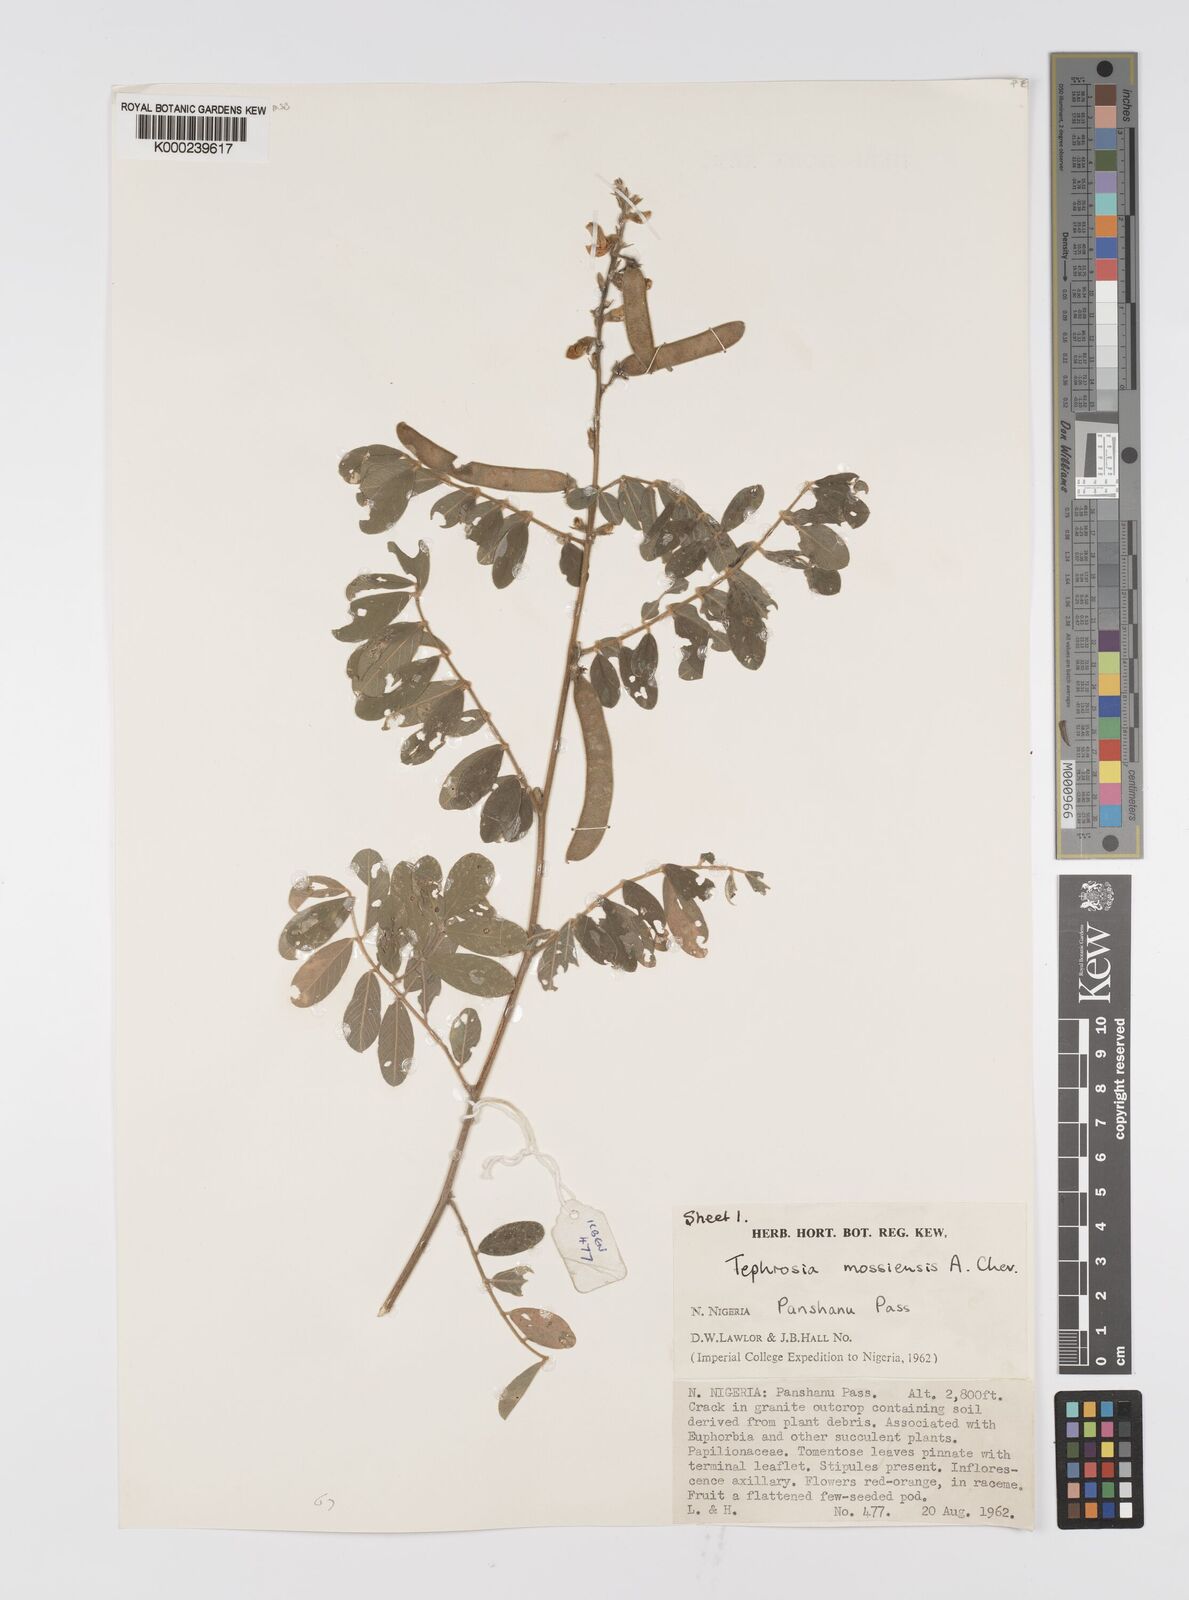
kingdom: Plantae
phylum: Tracheophyta
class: Magnoliopsida
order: Fabales
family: Fabaceae
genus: Tephrosia
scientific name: Tephrosia mossiensis
